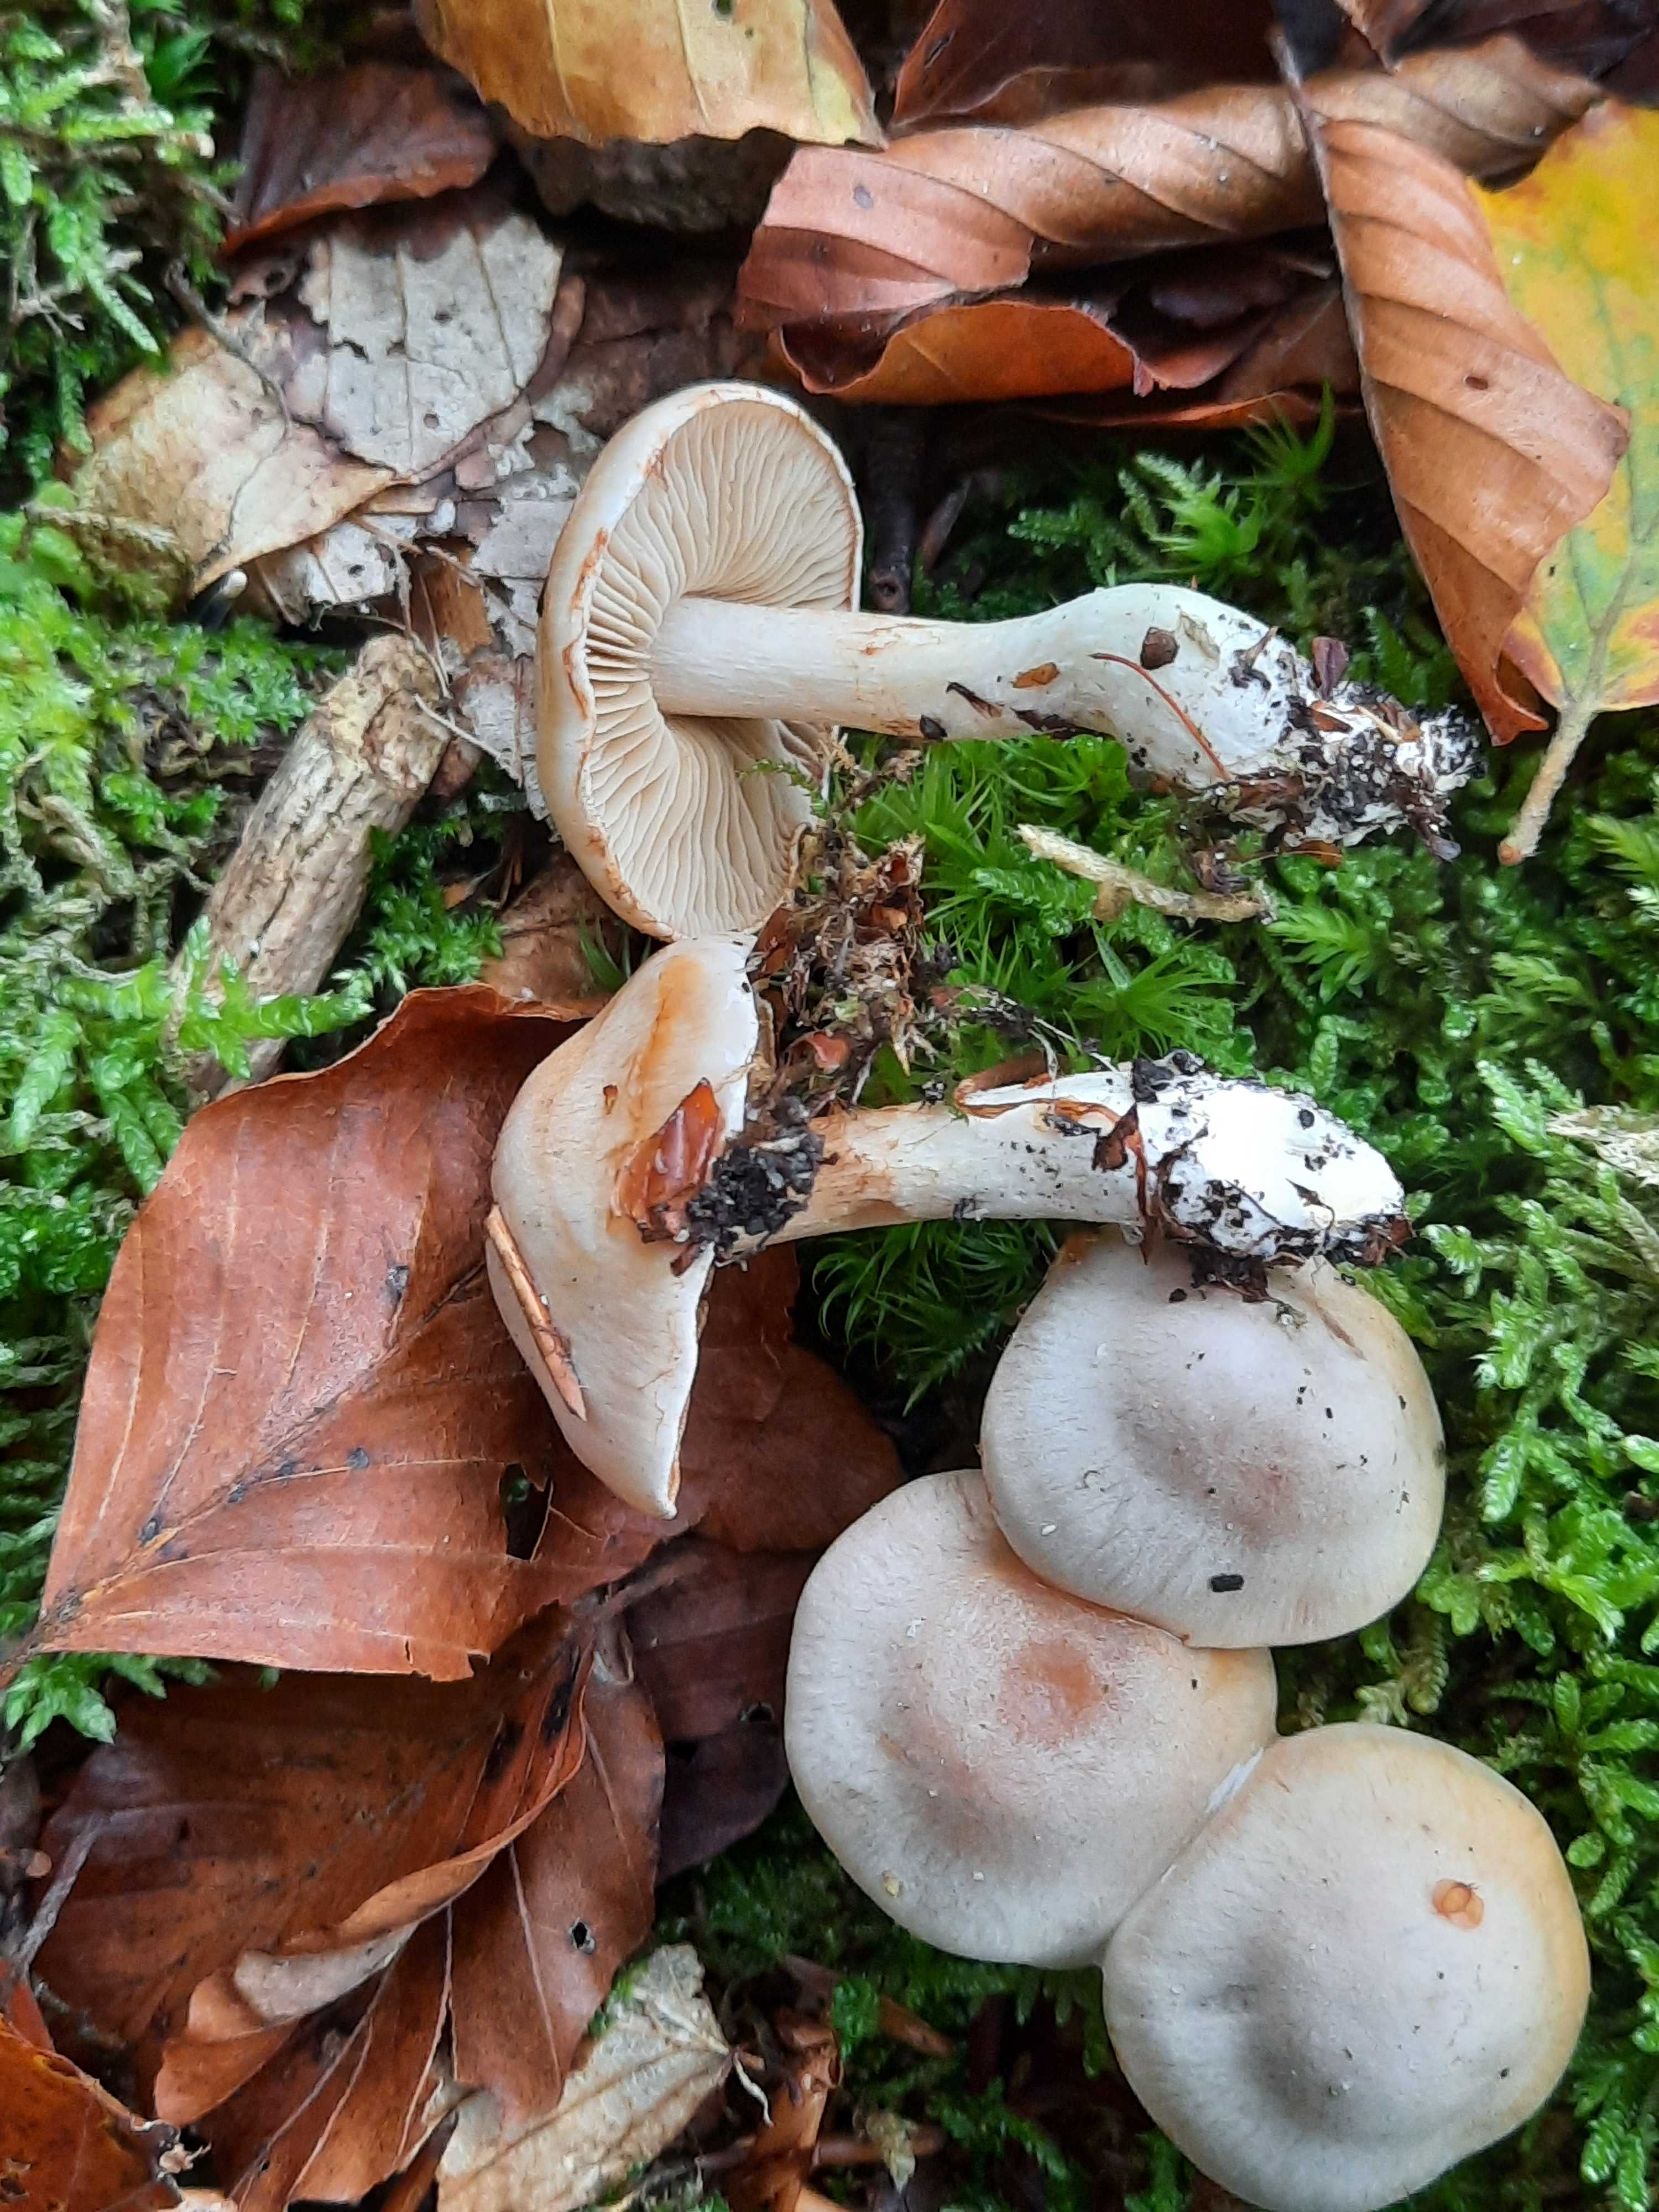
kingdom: Fungi
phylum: Basidiomycota
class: Agaricomycetes
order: Agaricales
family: Cortinariaceae
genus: Thaxterogaster
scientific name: Thaxterogaster leucoluteolus
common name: isabella slørhat
